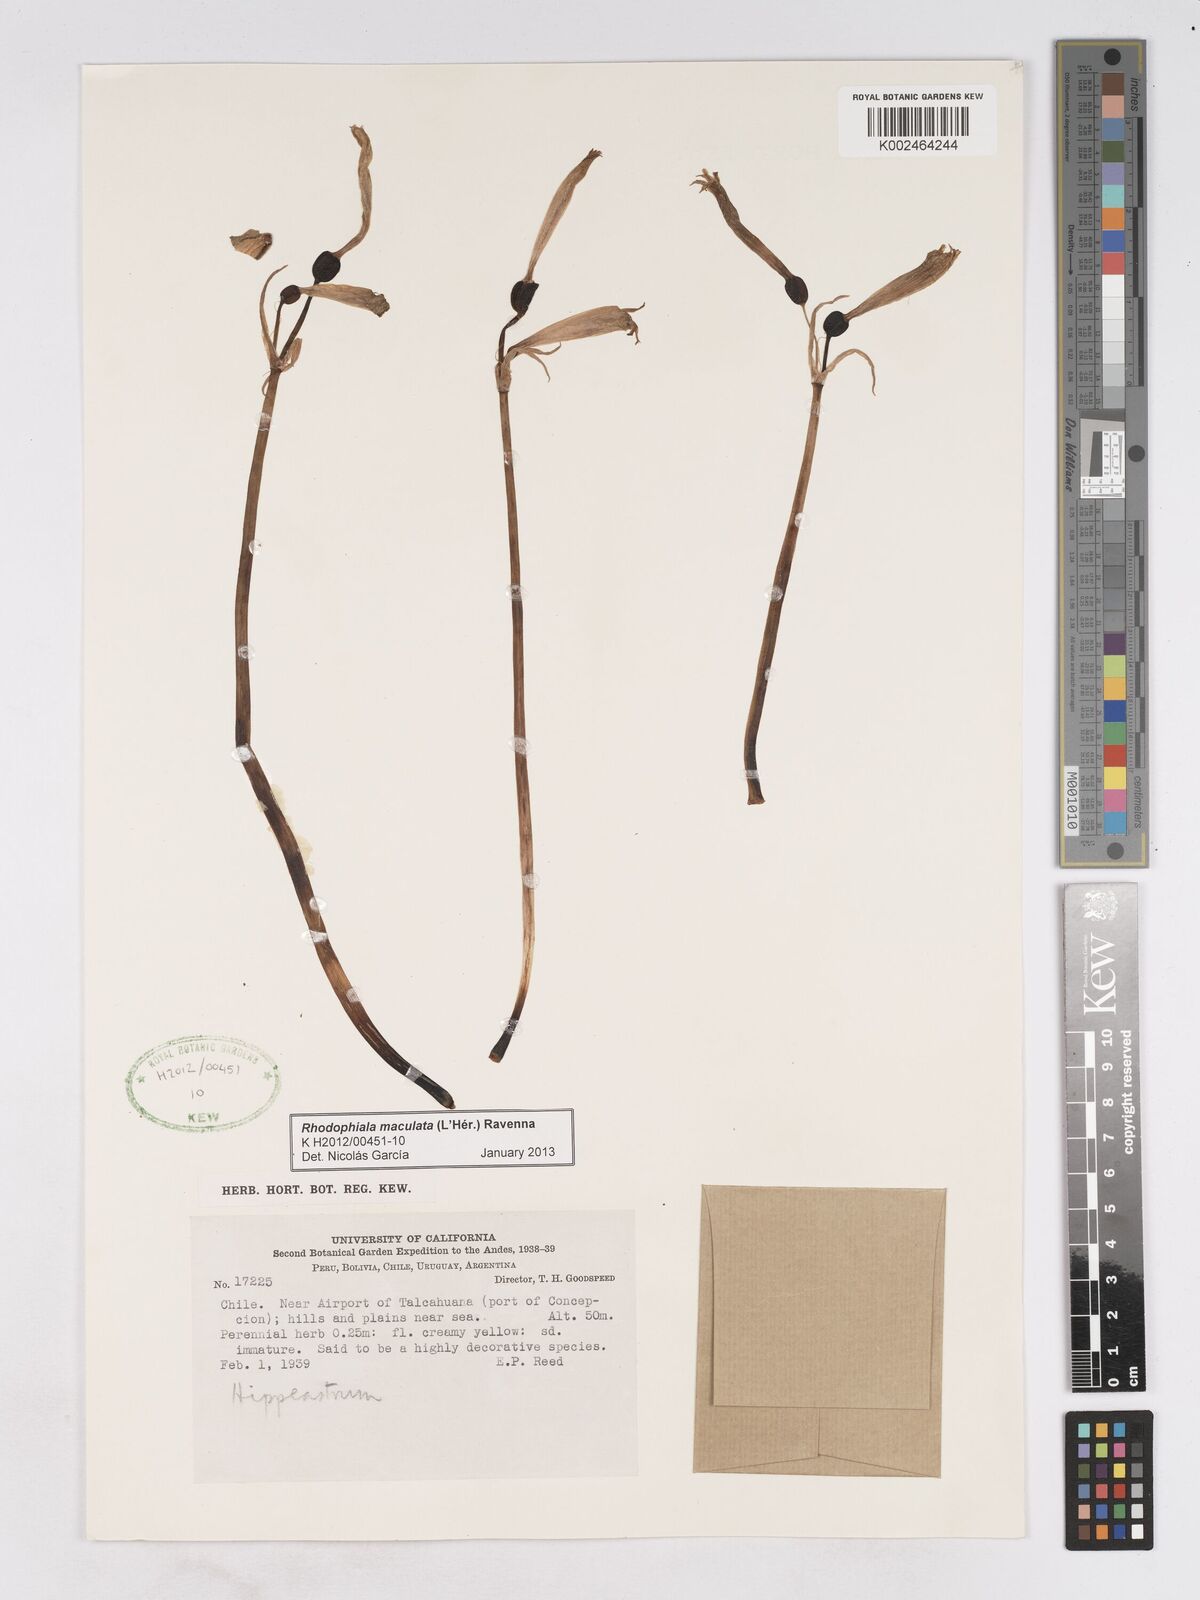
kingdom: Plantae
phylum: Tracheophyta
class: Liliopsida
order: Asparagales
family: Amaryllidaceae
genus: Zephyranthes
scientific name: Zephyranthes maculata
